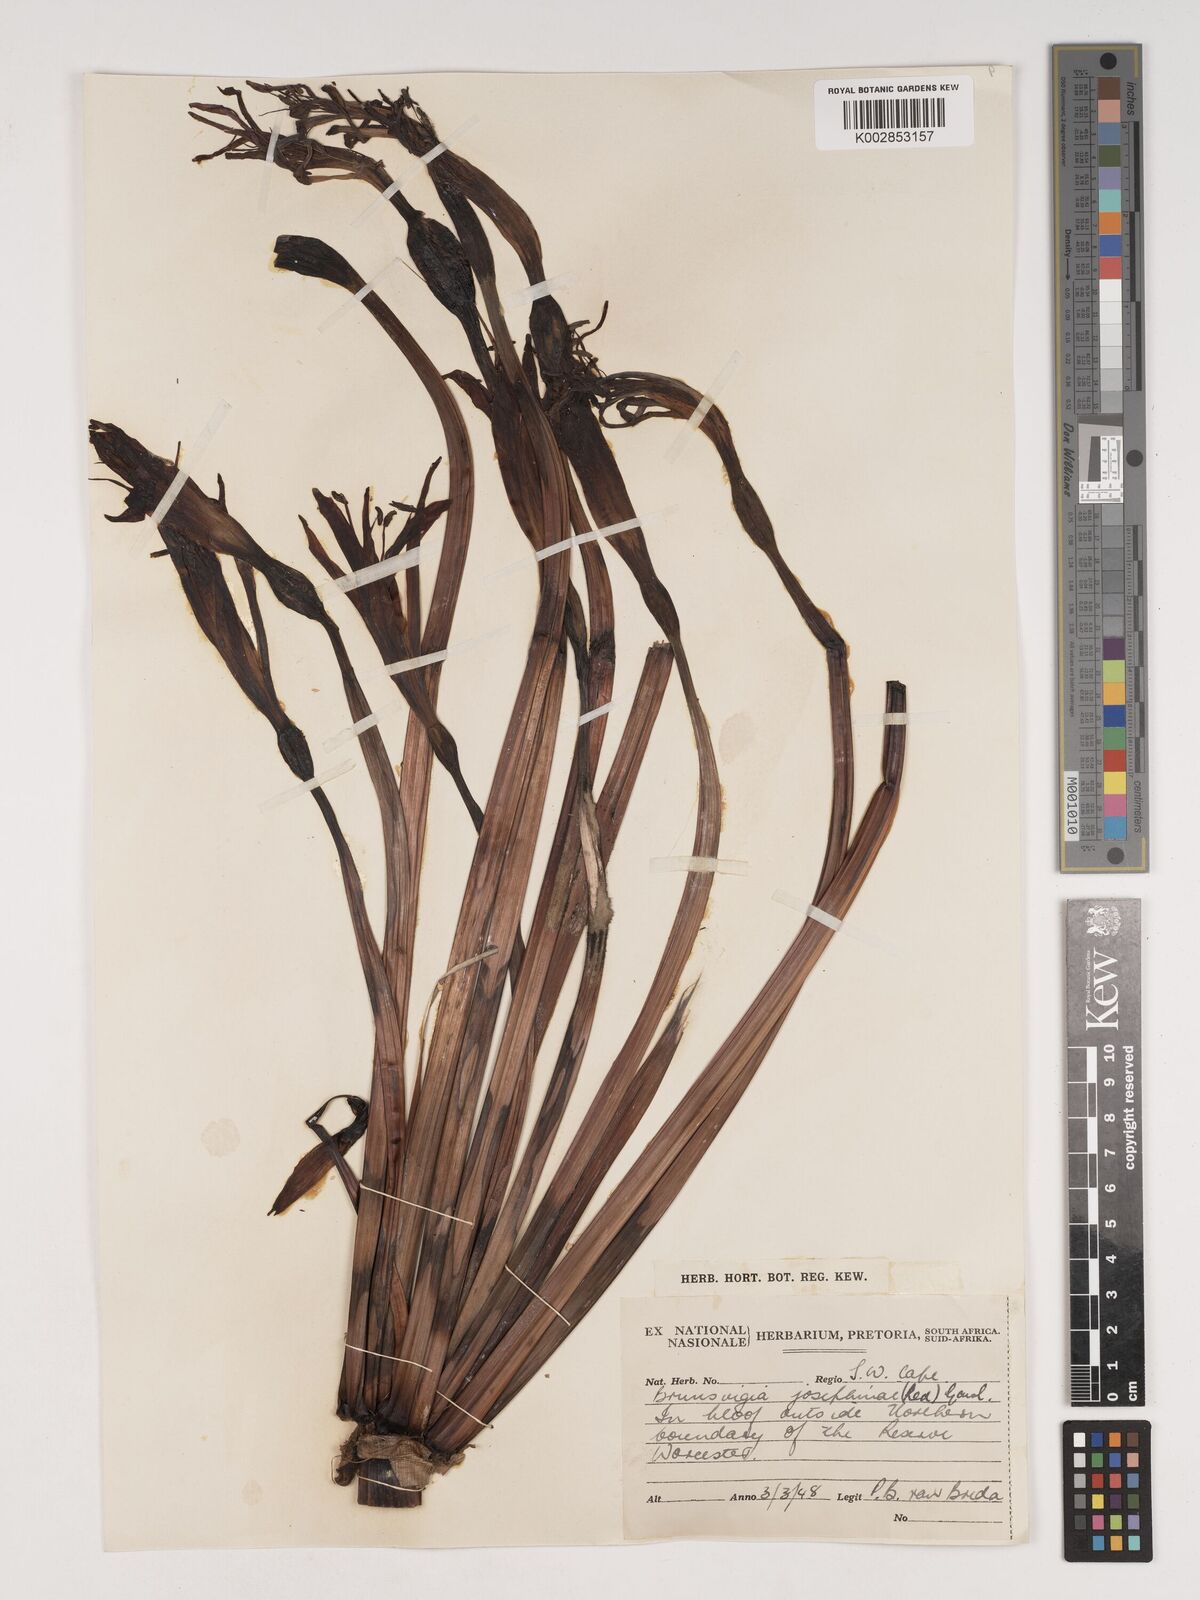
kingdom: Plantae
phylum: Tracheophyta
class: Liliopsida
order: Asparagales
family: Amaryllidaceae
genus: Brunsvigia
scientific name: Brunsvigia josephinae
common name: Josephine's-lily
